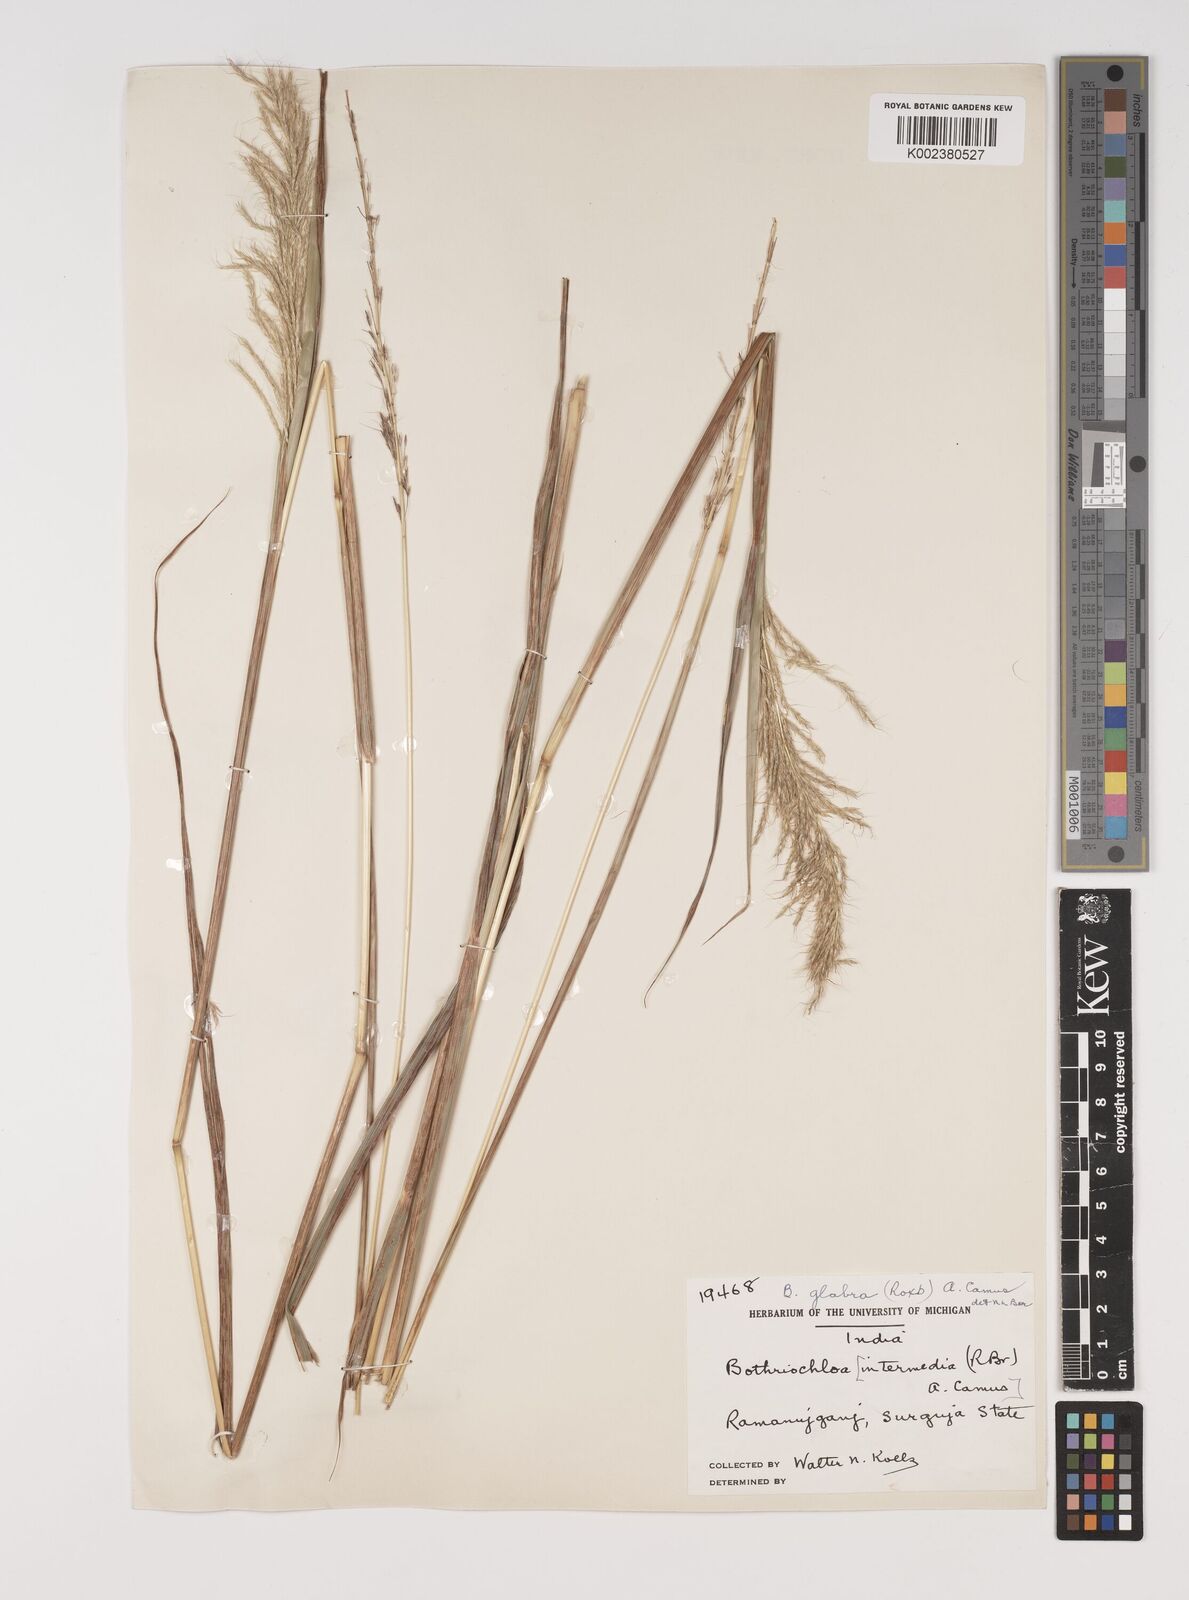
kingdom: Plantae
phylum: Tracheophyta
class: Liliopsida
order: Poales
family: Poaceae
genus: Bothriochloa
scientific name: Bothriochloa bladhii
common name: Caucasian bluestem
